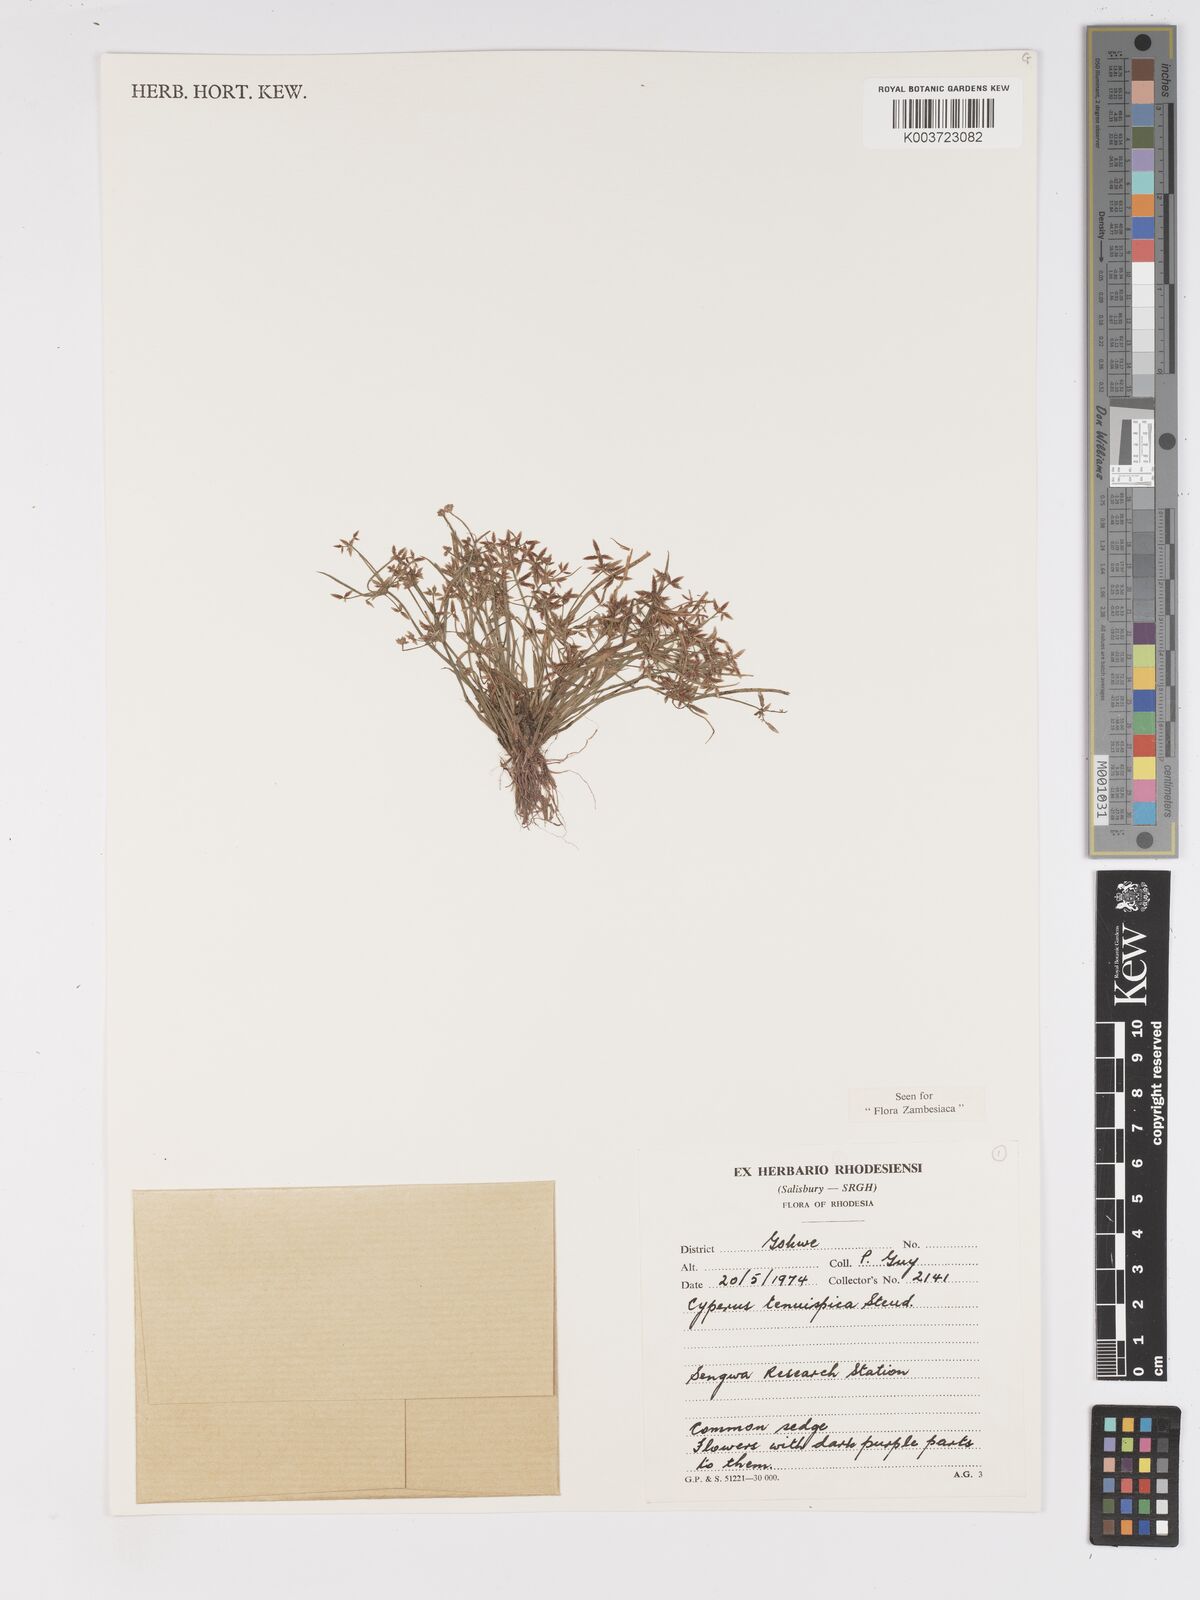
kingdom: Plantae
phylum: Tracheophyta
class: Liliopsida
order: Poales
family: Cyperaceae
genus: Cyperus
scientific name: Cyperus tenuispica
